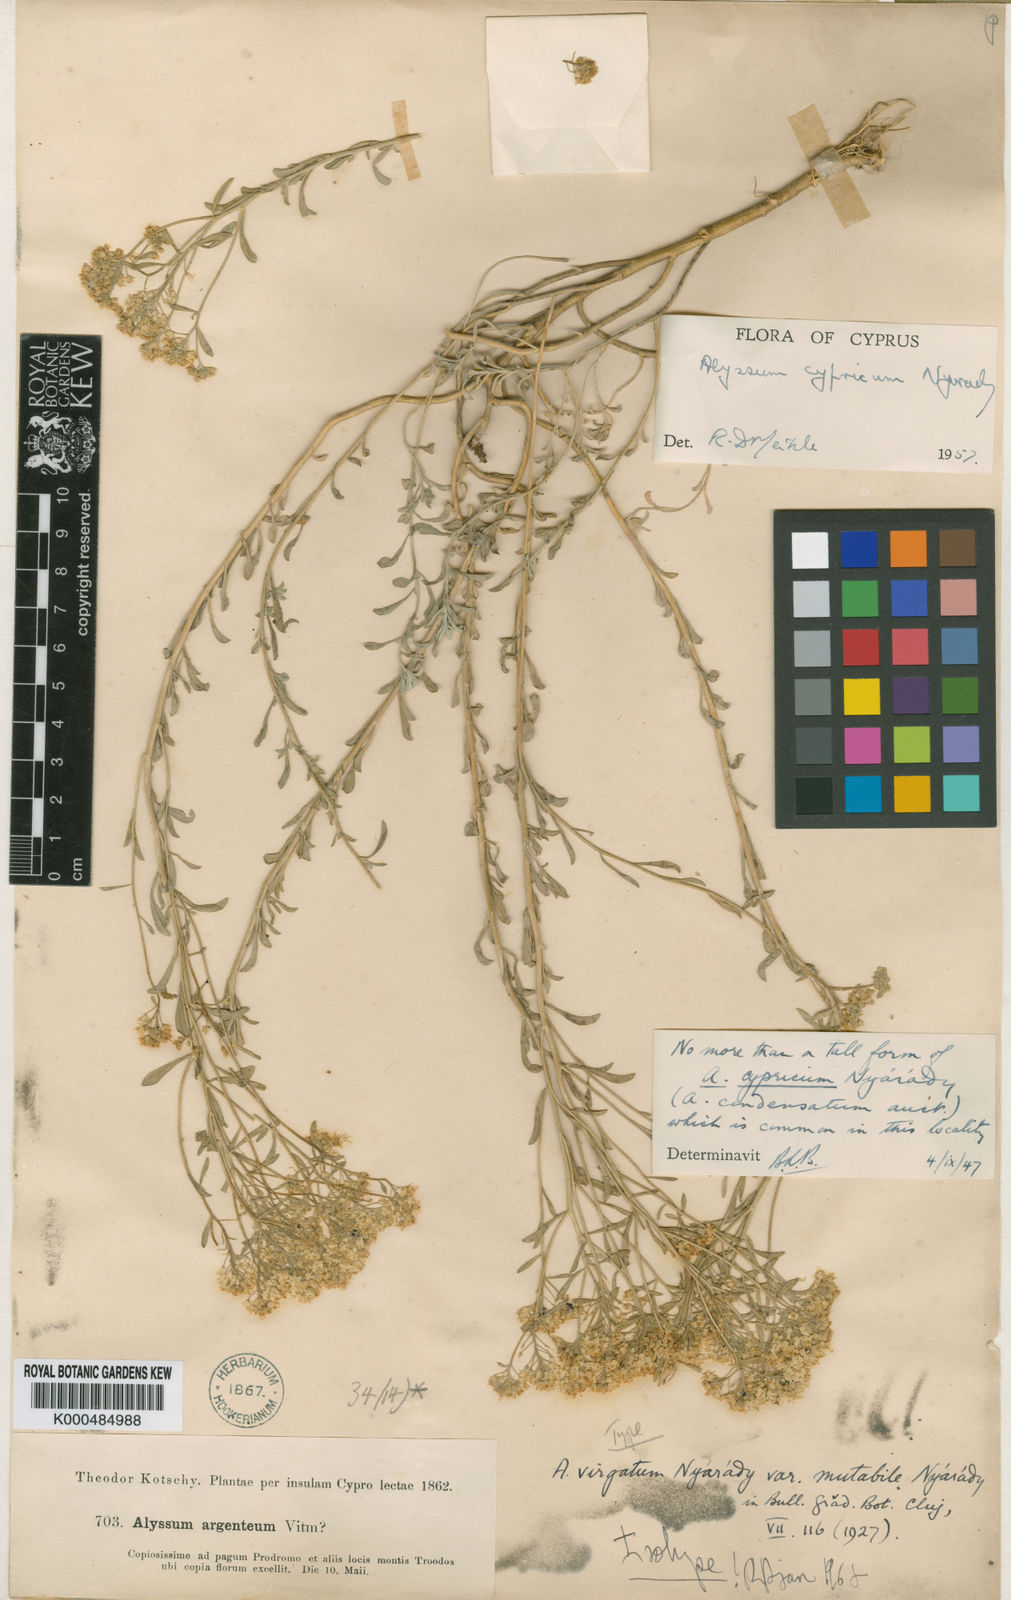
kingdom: Plantae
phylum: Tracheophyta
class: Magnoliopsida
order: Brassicales
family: Brassicaceae
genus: Odontarrhena
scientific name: Odontarrhena cyprica
